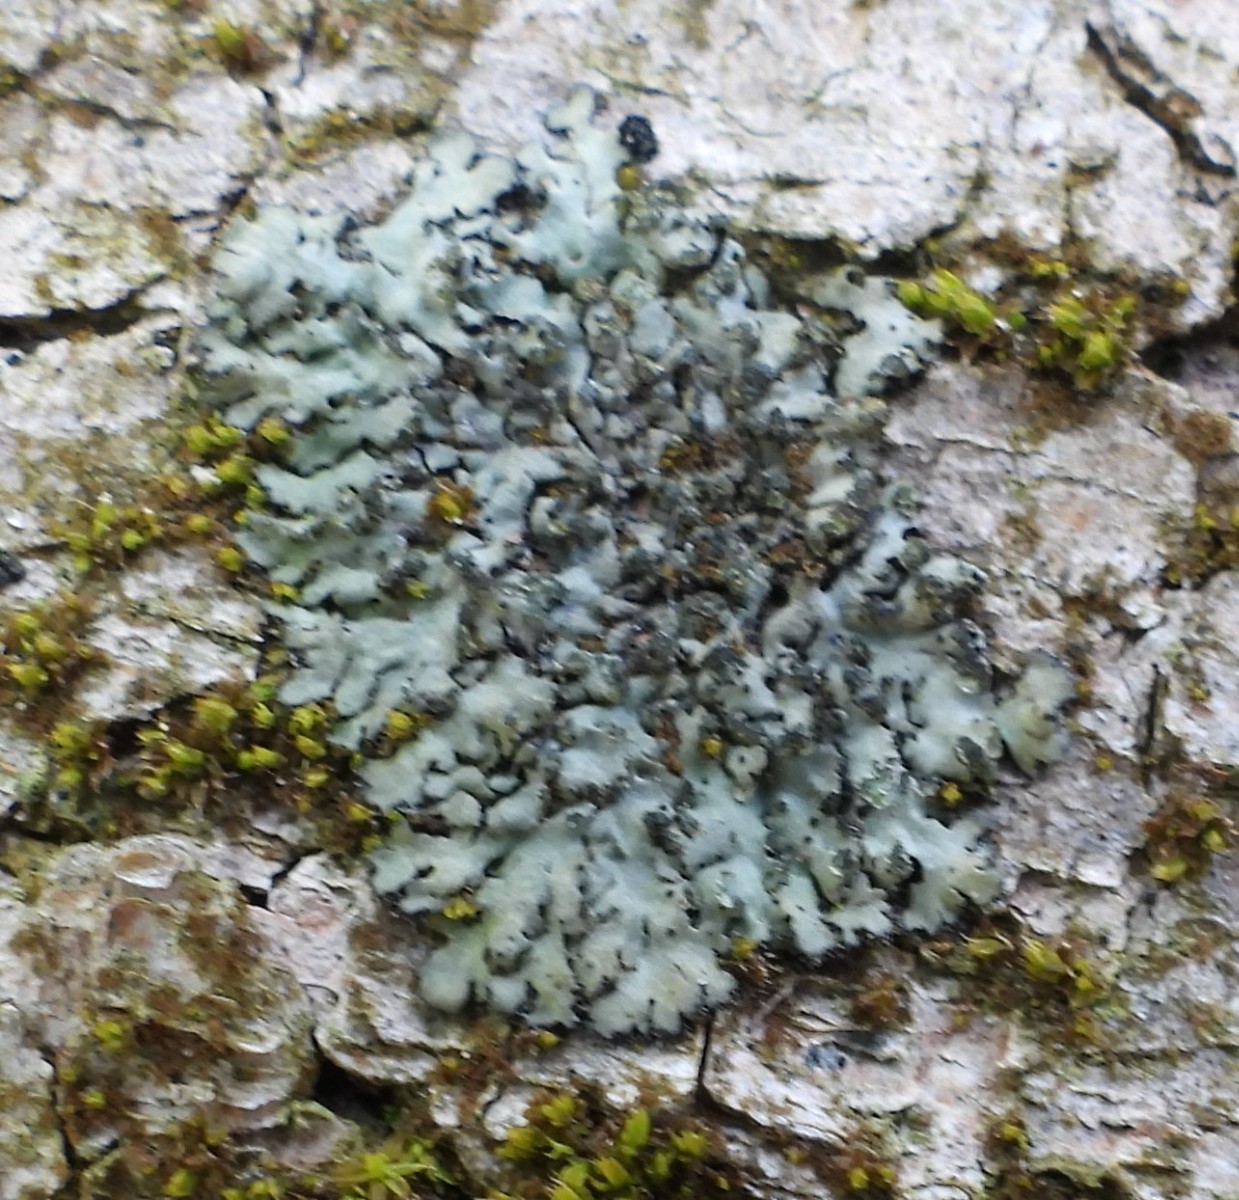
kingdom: Fungi
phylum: Ascomycota
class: Lecanoromycetes
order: Caliciales
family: Physciaceae
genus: Phaeophyscia
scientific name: Phaeophyscia orbicularis
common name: grågrøn rosetlav
